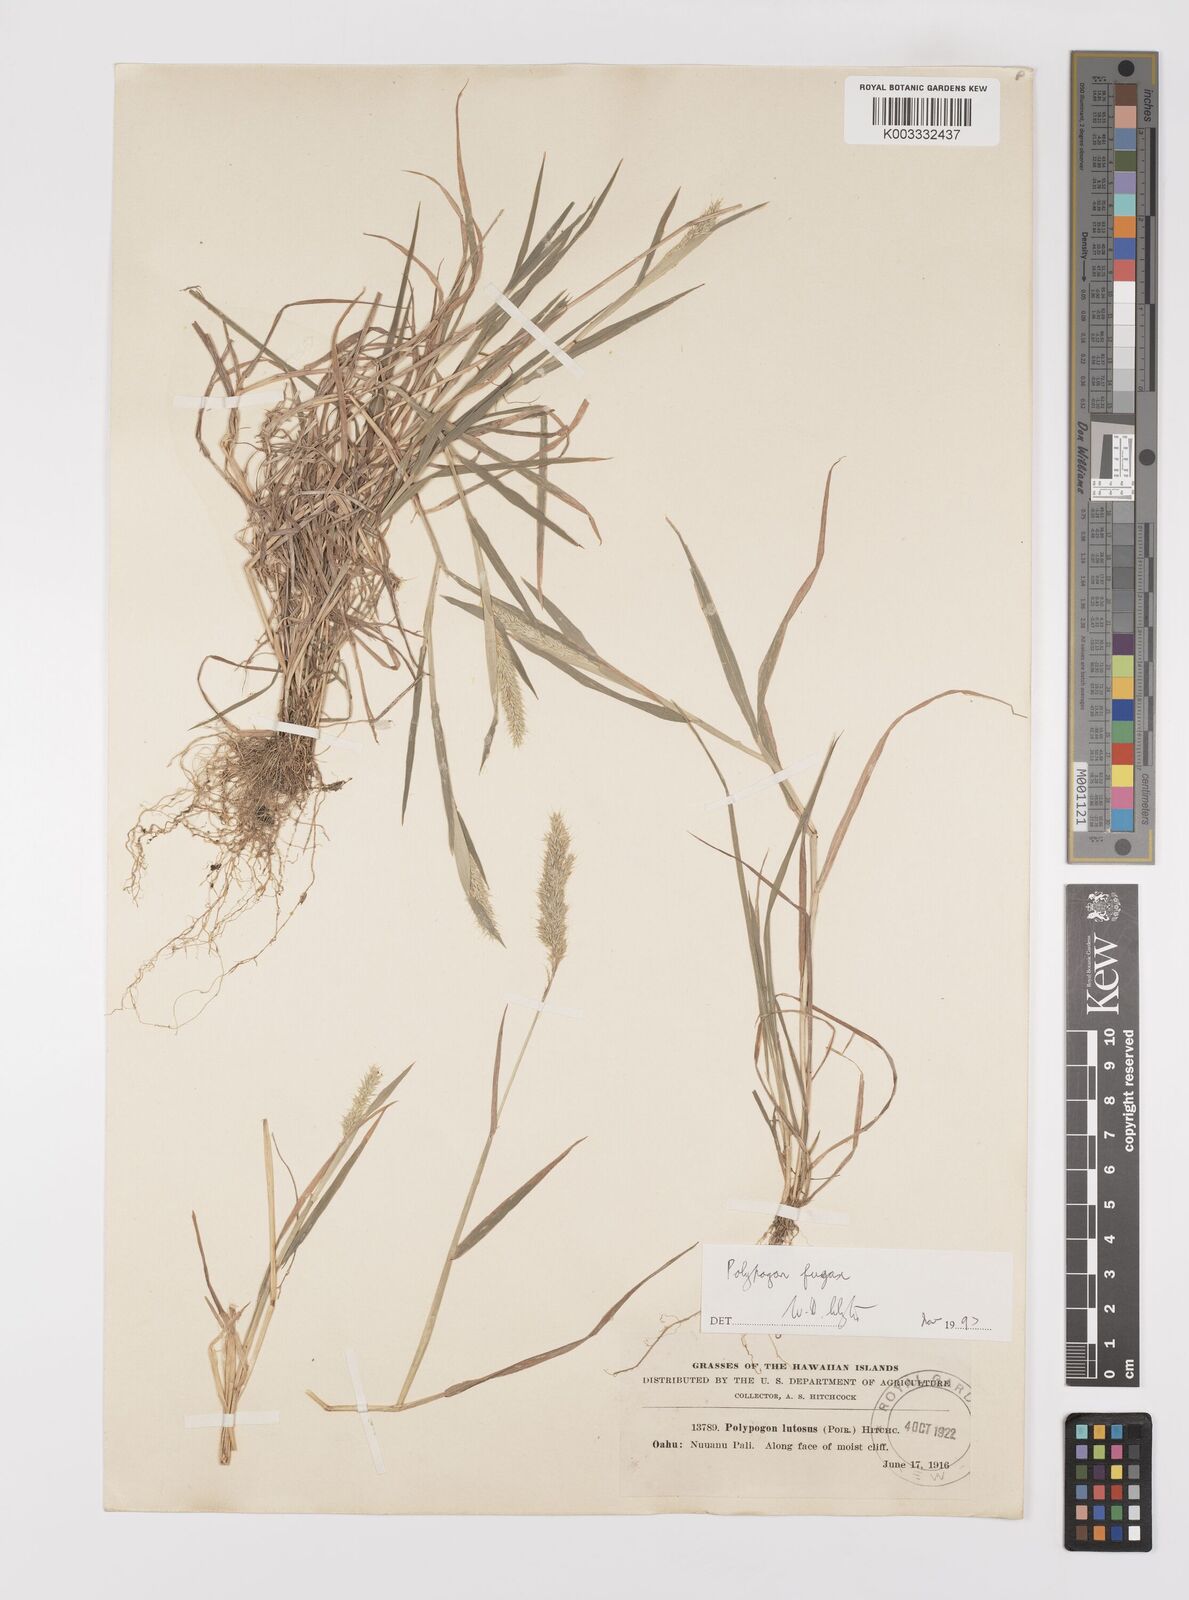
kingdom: Plantae
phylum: Tracheophyta
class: Liliopsida
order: Poales
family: Poaceae
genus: Polypogon
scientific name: Polypogon fugax
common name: Asia minor bluegrass
